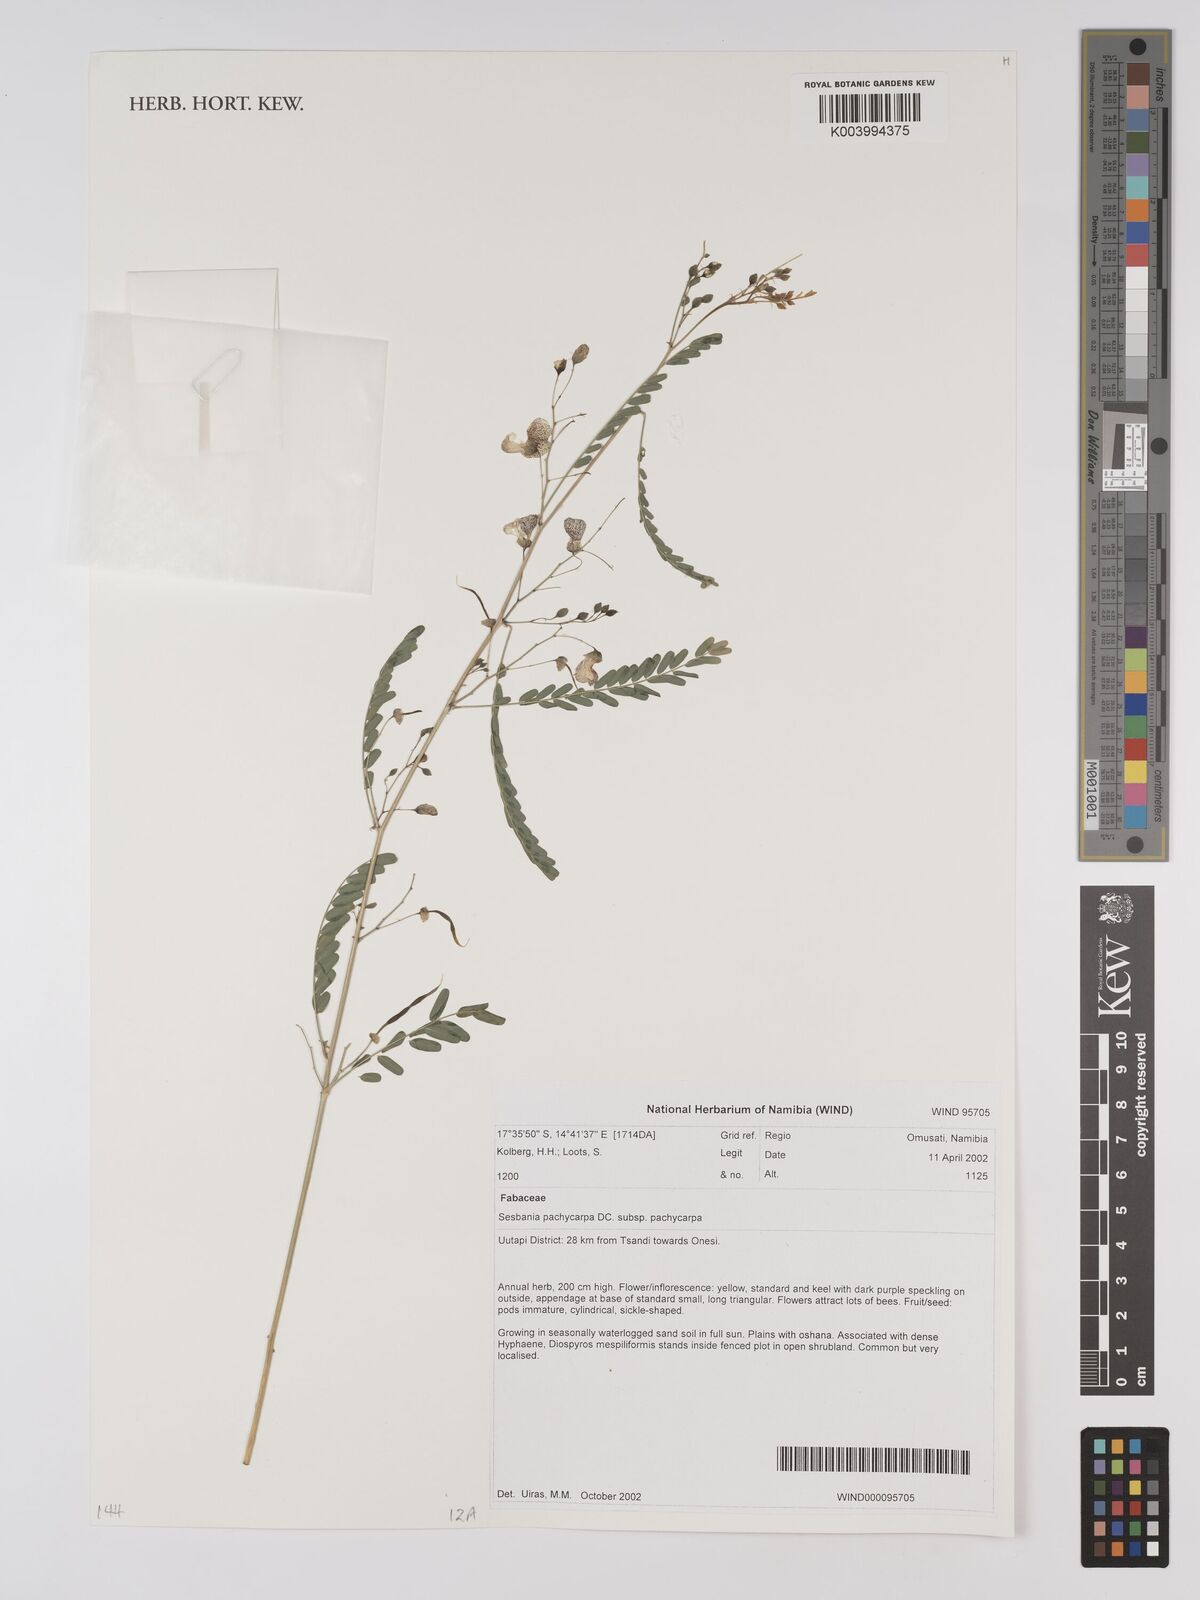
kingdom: Plantae
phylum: Tracheophyta
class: Magnoliopsida
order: Fabales
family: Fabaceae
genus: Sesbania
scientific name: Sesbania pachycarpa
